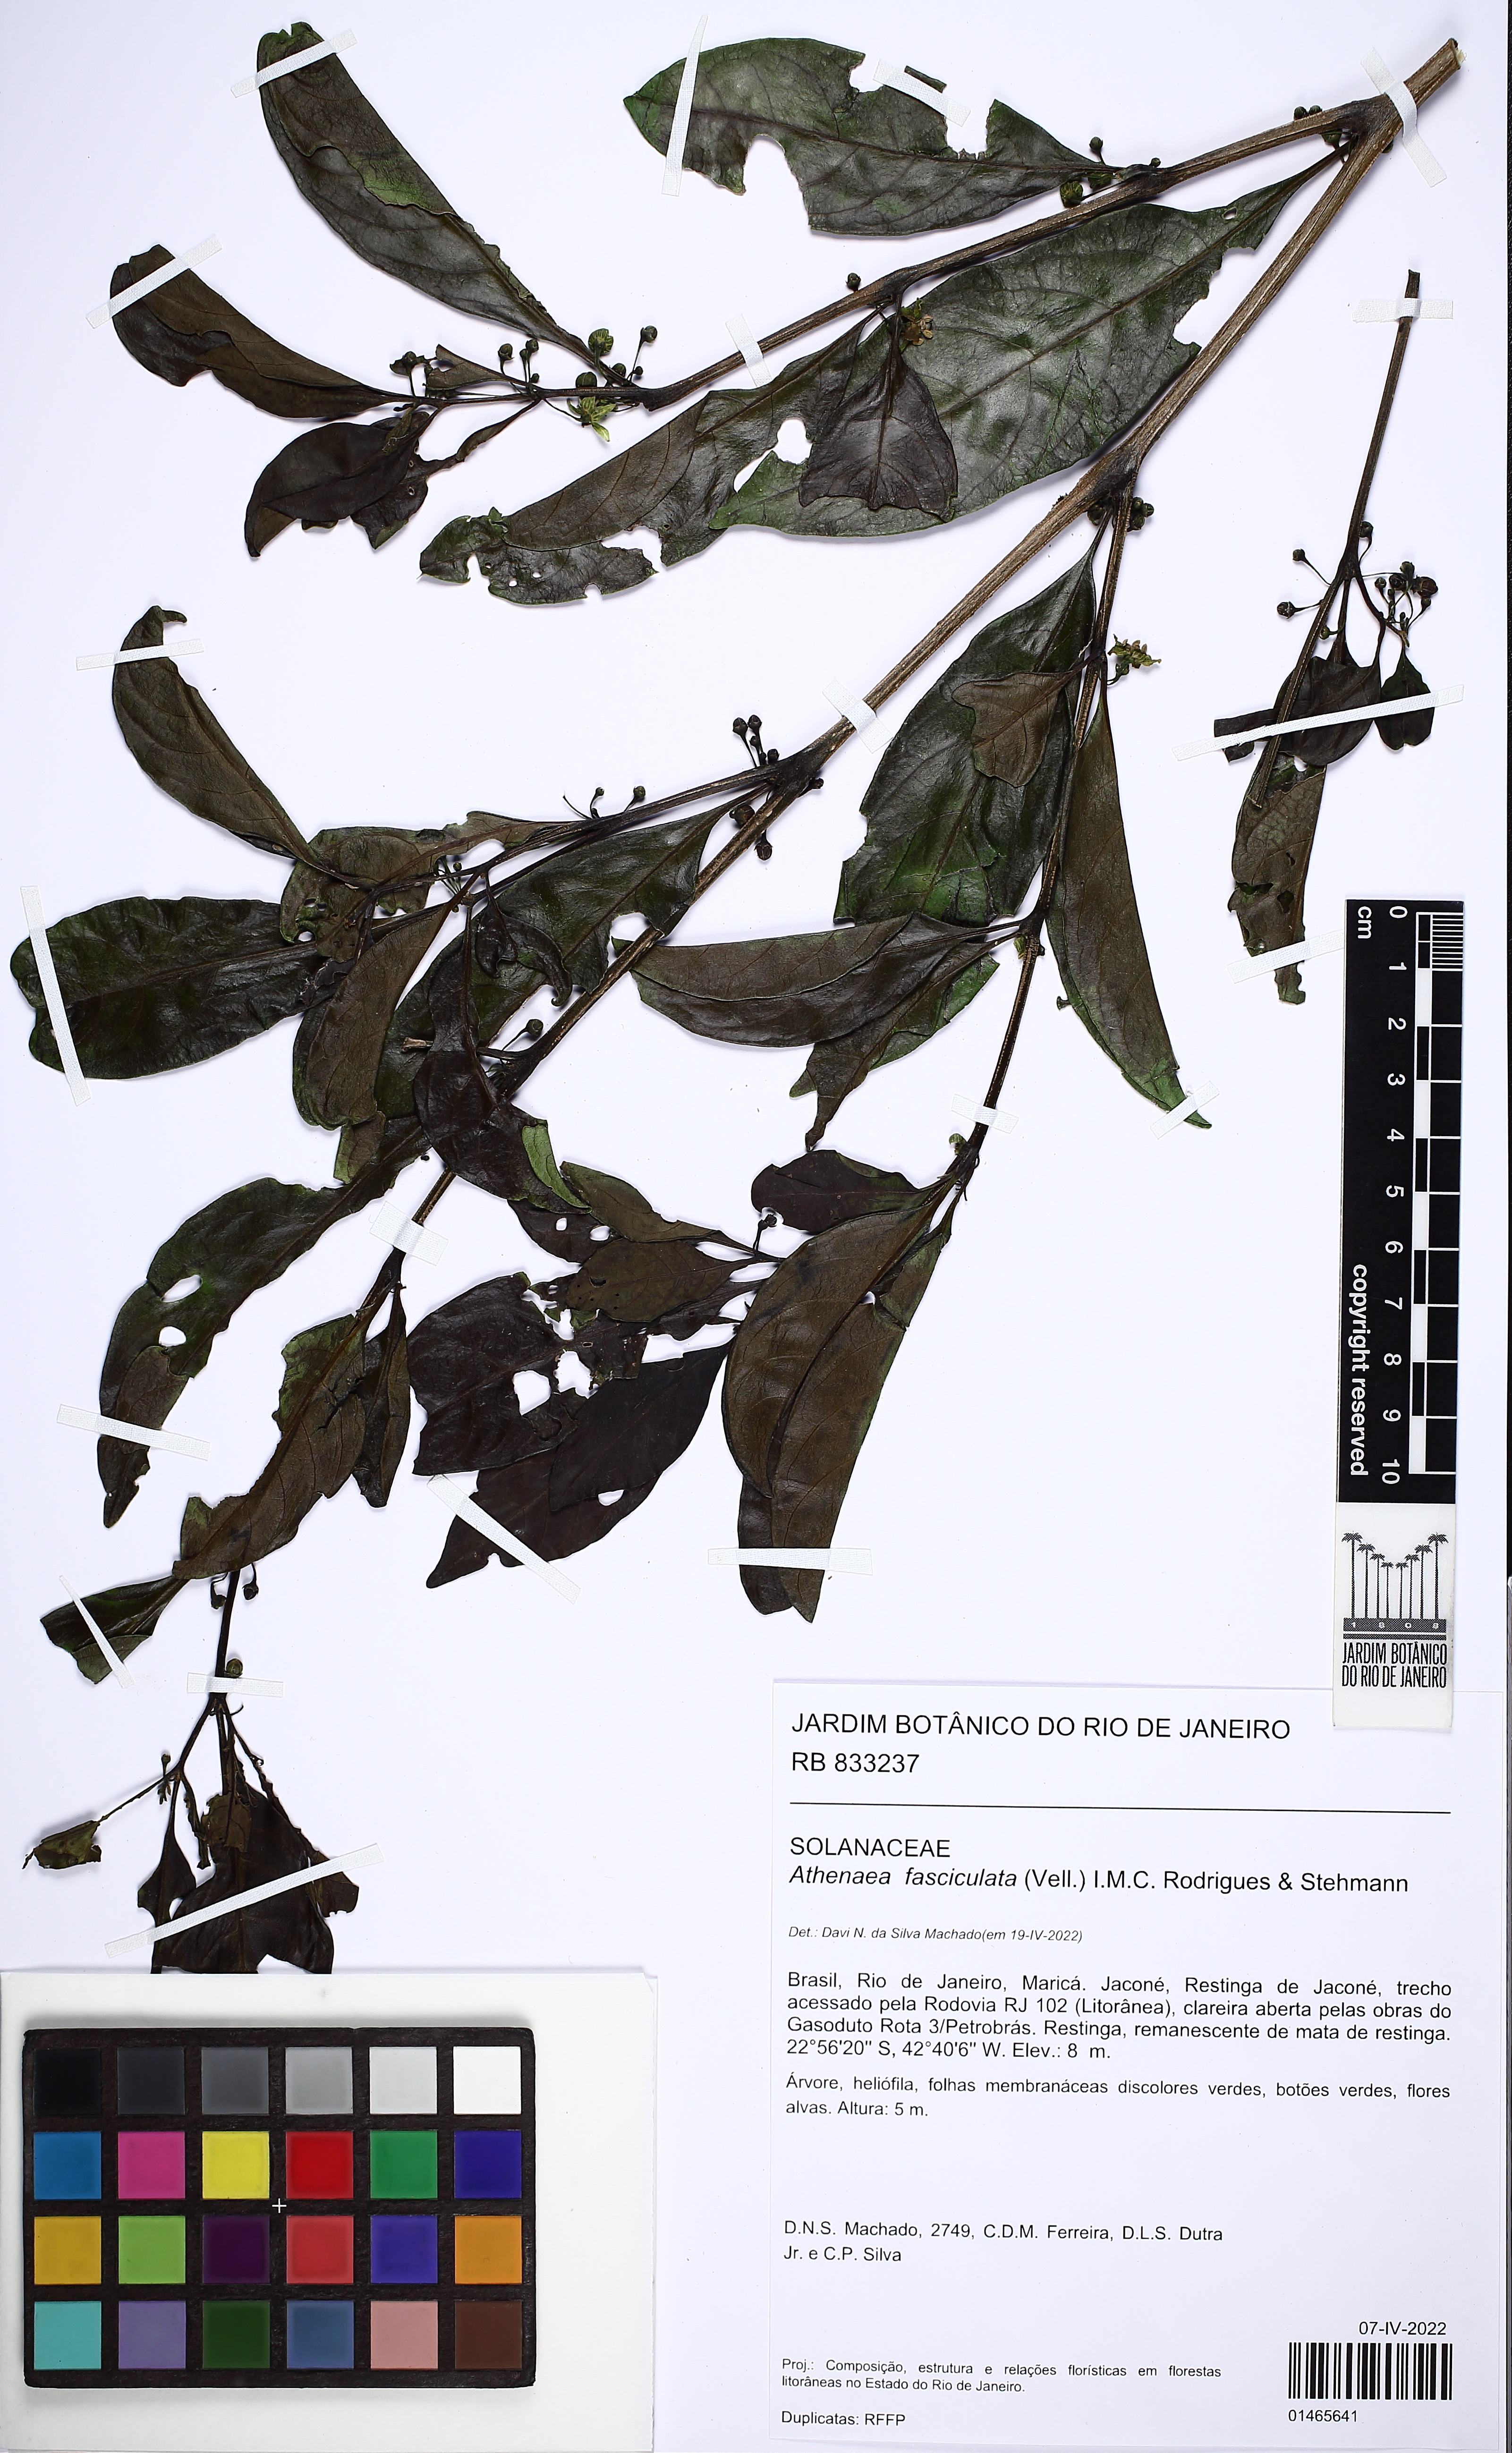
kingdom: Plantae
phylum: Tracheophyta
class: Magnoliopsida
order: Solanales
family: Solanaceae
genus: Athenaea
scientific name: Athenaea fasciculata
